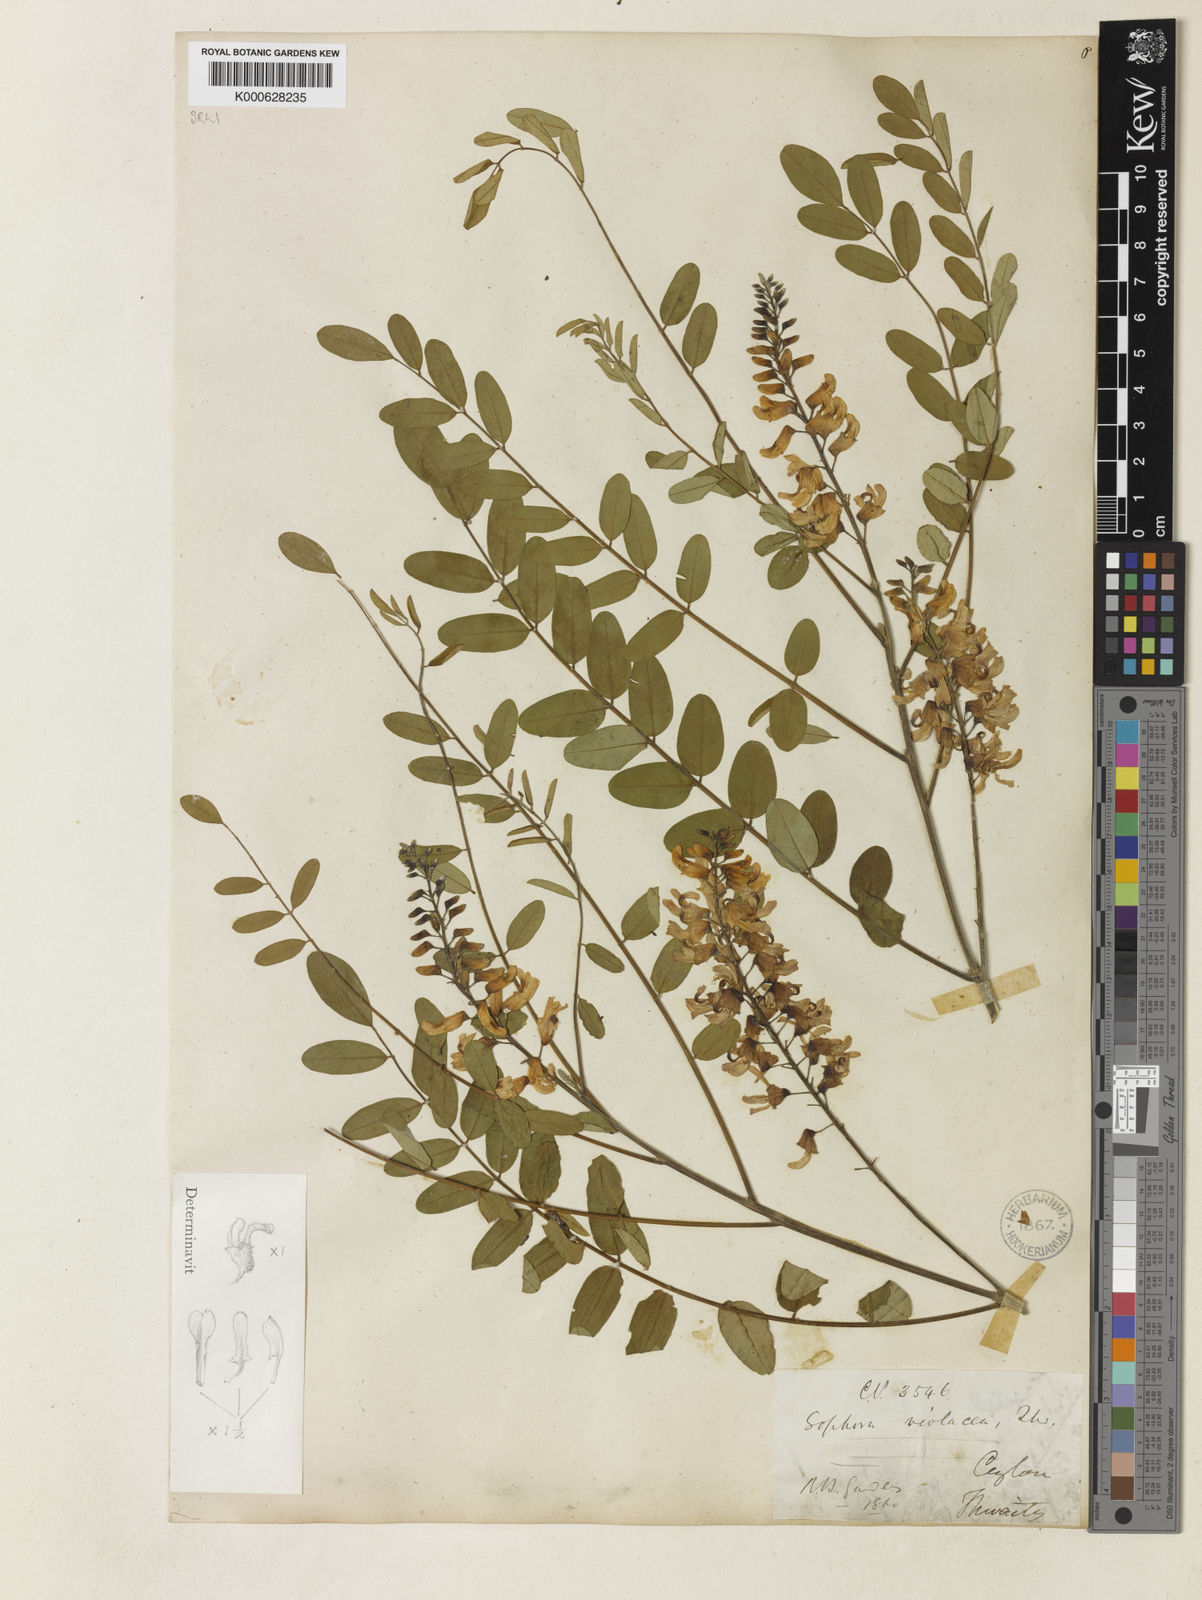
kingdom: Plantae
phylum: Tracheophyta
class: Magnoliopsida
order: Fabales
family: Fabaceae
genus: Sophora
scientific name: Sophora violacea
